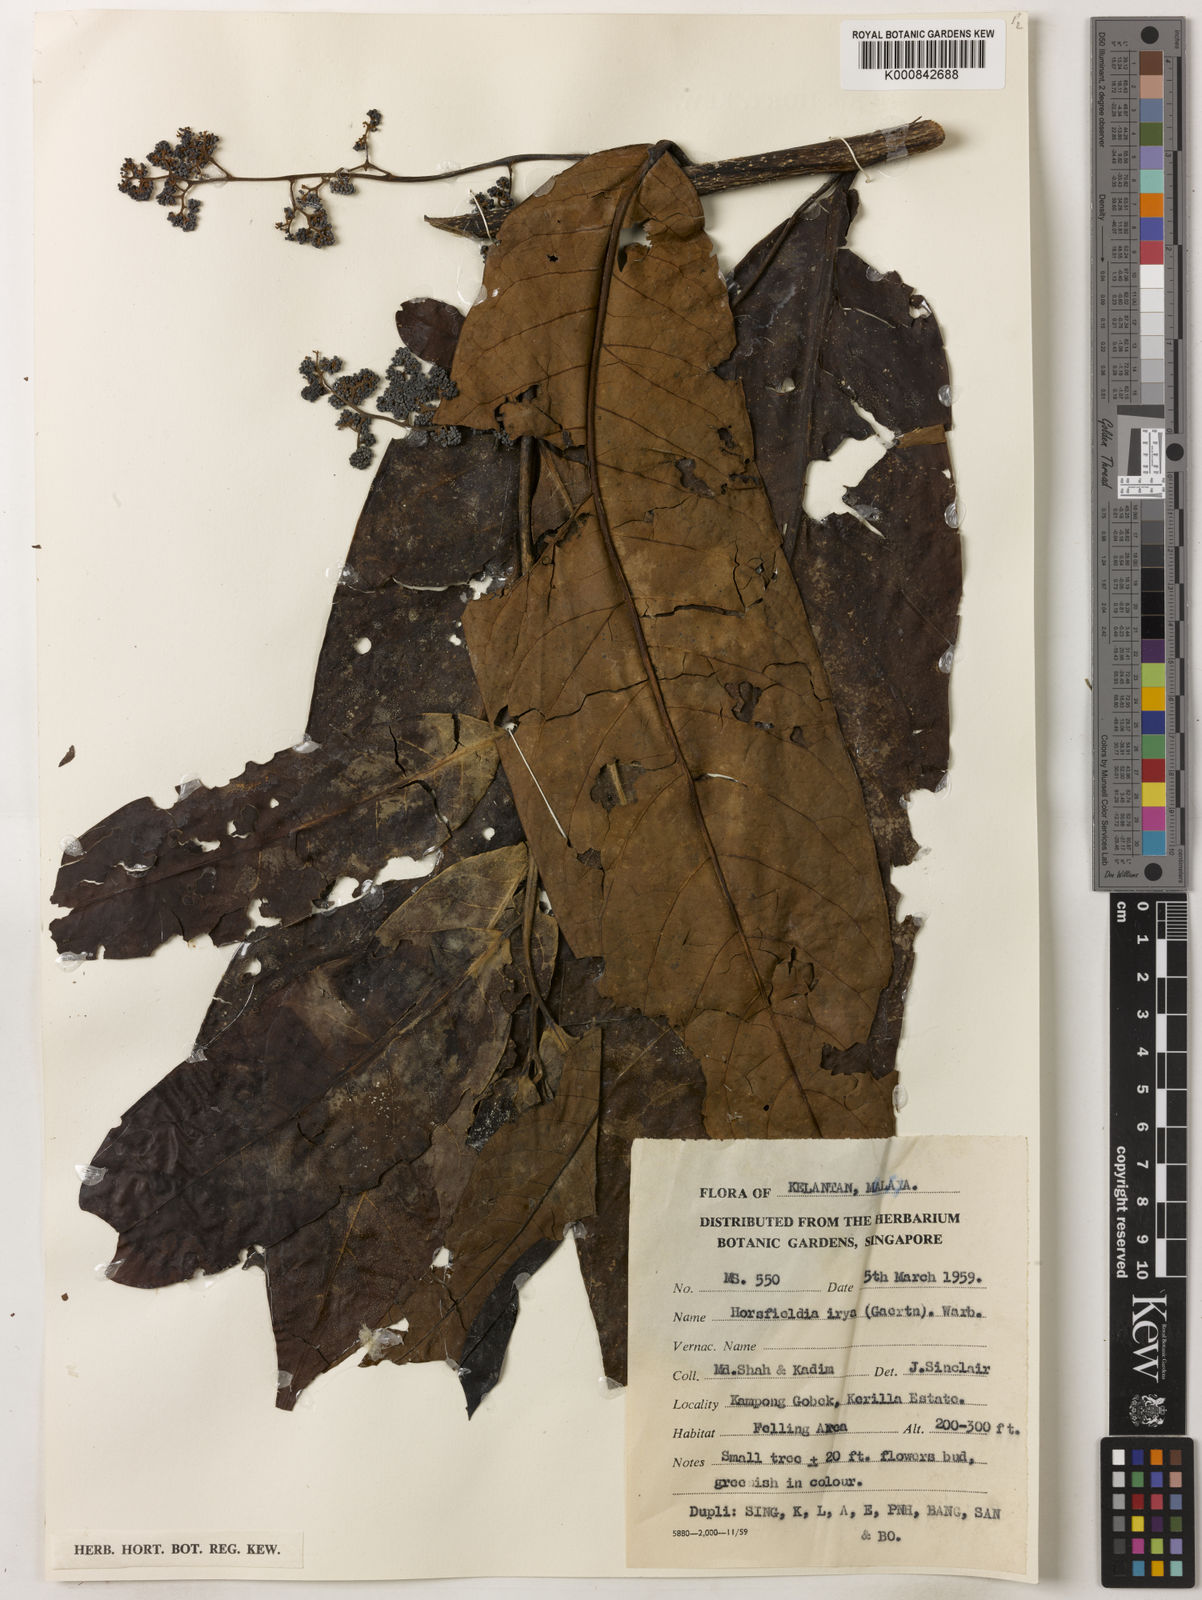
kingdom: Plantae
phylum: Tracheophyta
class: Magnoliopsida
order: Magnoliales
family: Myristicaceae
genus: Horsfieldia
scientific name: Horsfieldia irya
